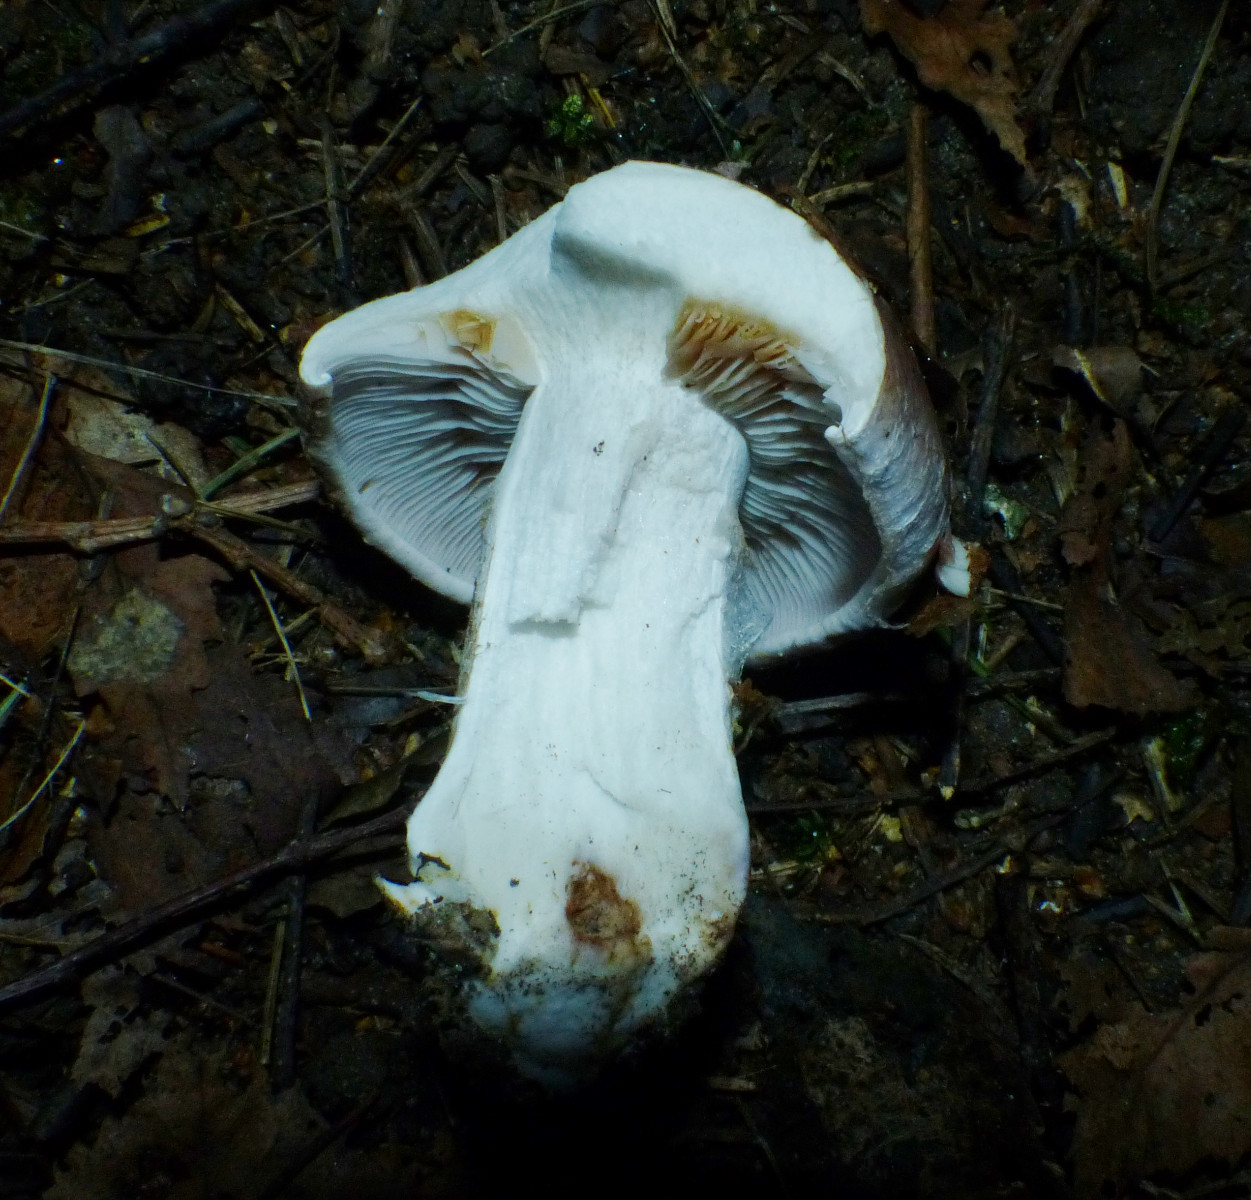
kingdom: Fungi
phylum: Basidiomycota
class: Agaricomycetes
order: Agaricales
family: Cortinariaceae
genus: Phlegmacium
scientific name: Phlegmacium
